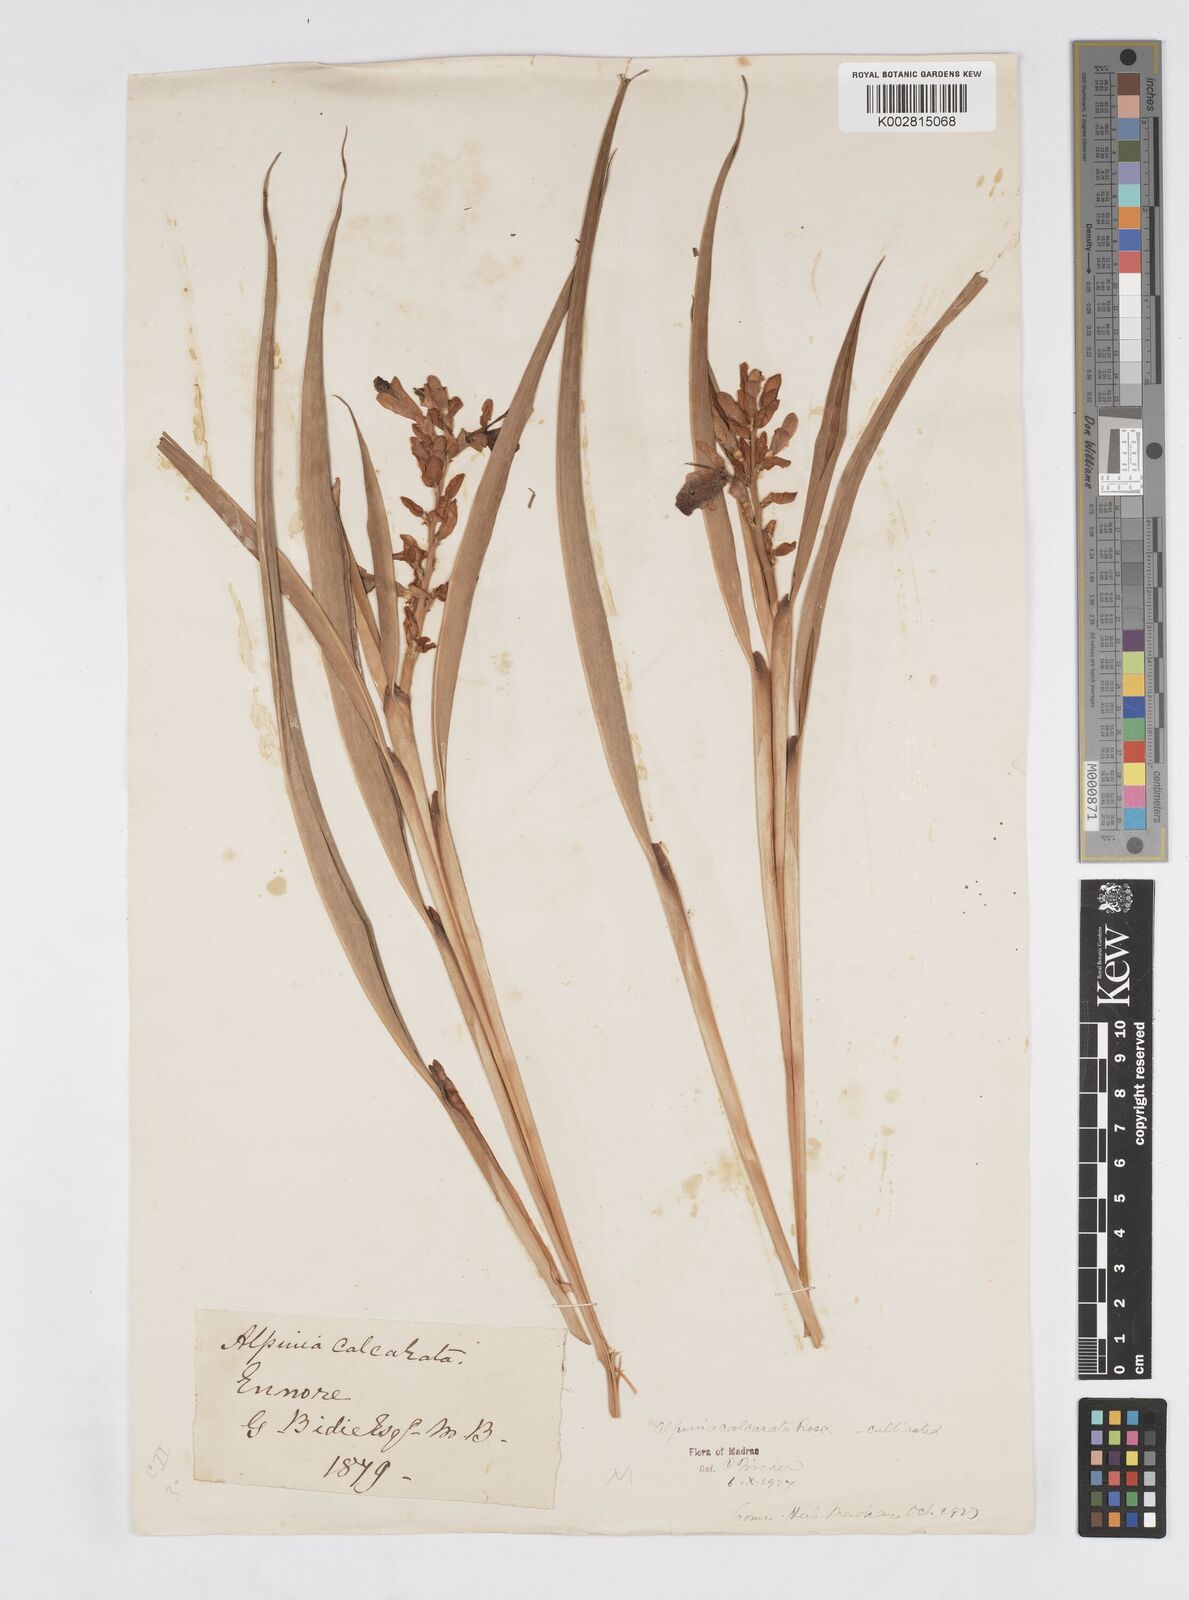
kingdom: Plantae
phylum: Tracheophyta
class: Liliopsida
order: Zingiberales
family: Zingiberaceae
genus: Alpinia
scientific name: Alpinia calcarata
